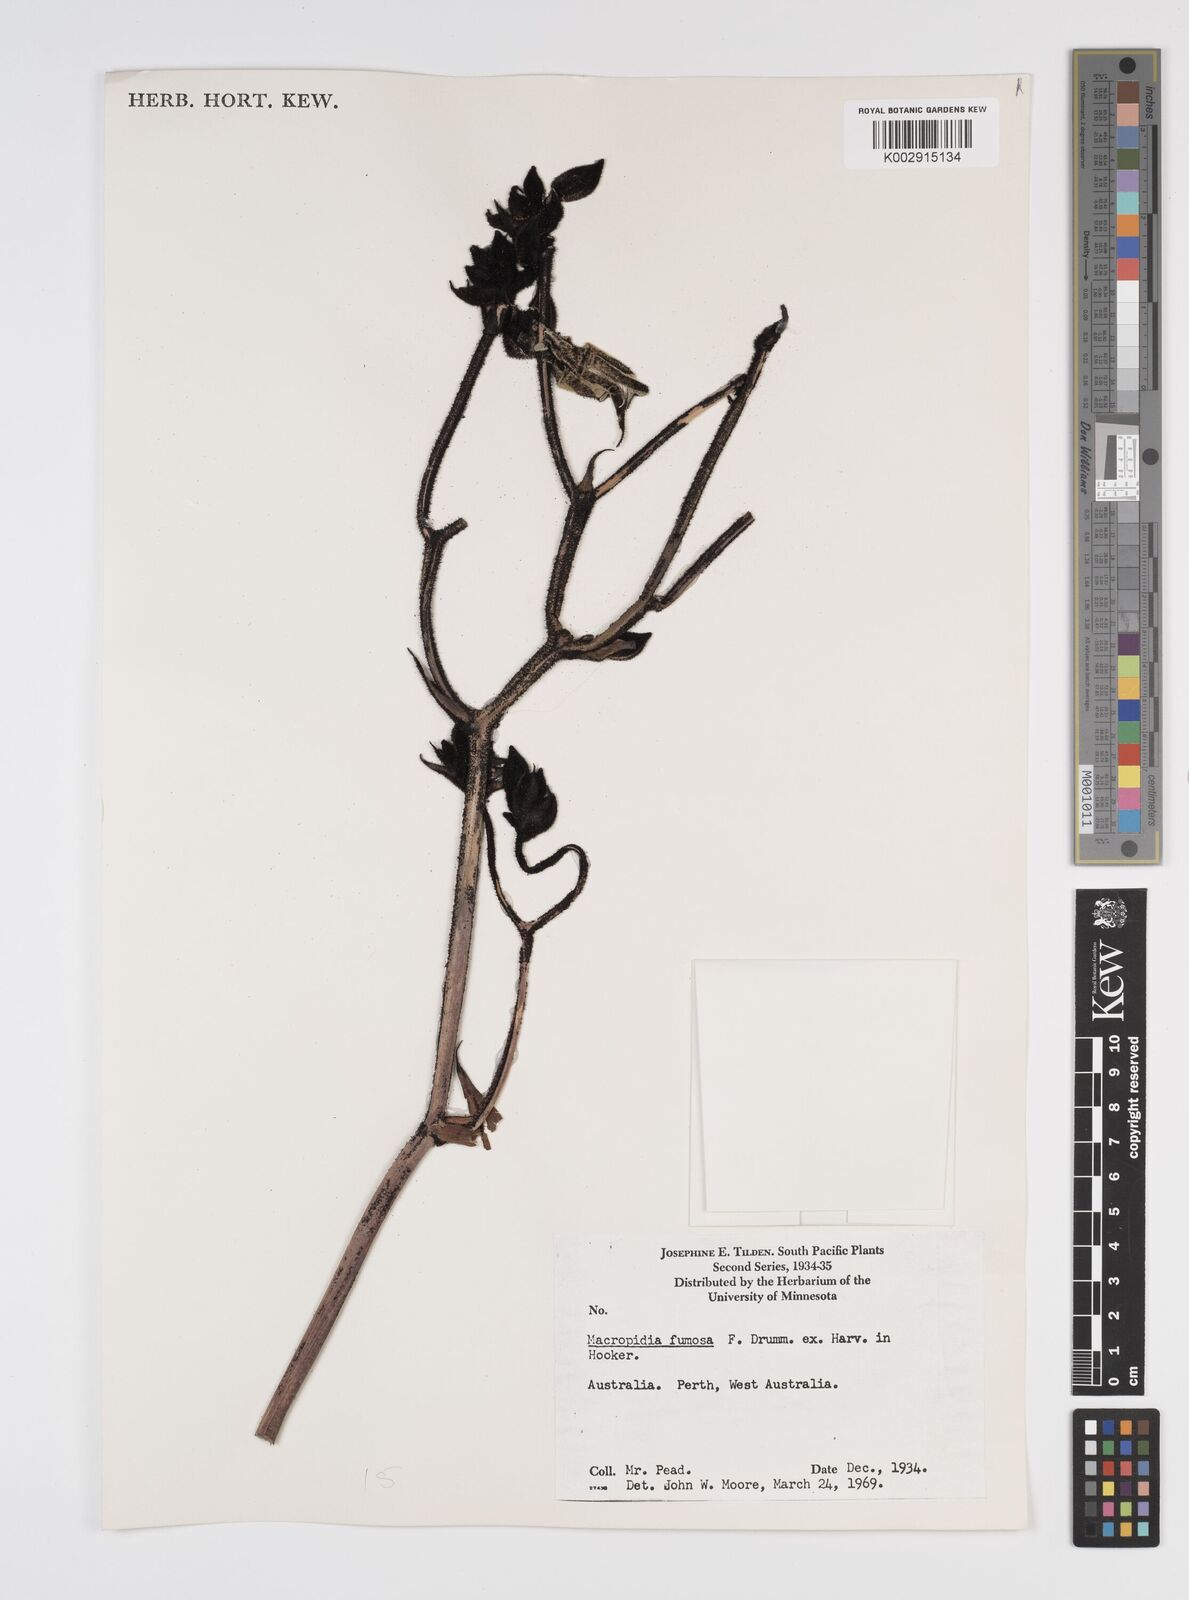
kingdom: Plantae
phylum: Tracheophyta
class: Liliopsida
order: Commelinales
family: Haemodoraceae
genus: Macropidia
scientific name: Macropidia fuliginosa
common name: Black kangaroo-paw
